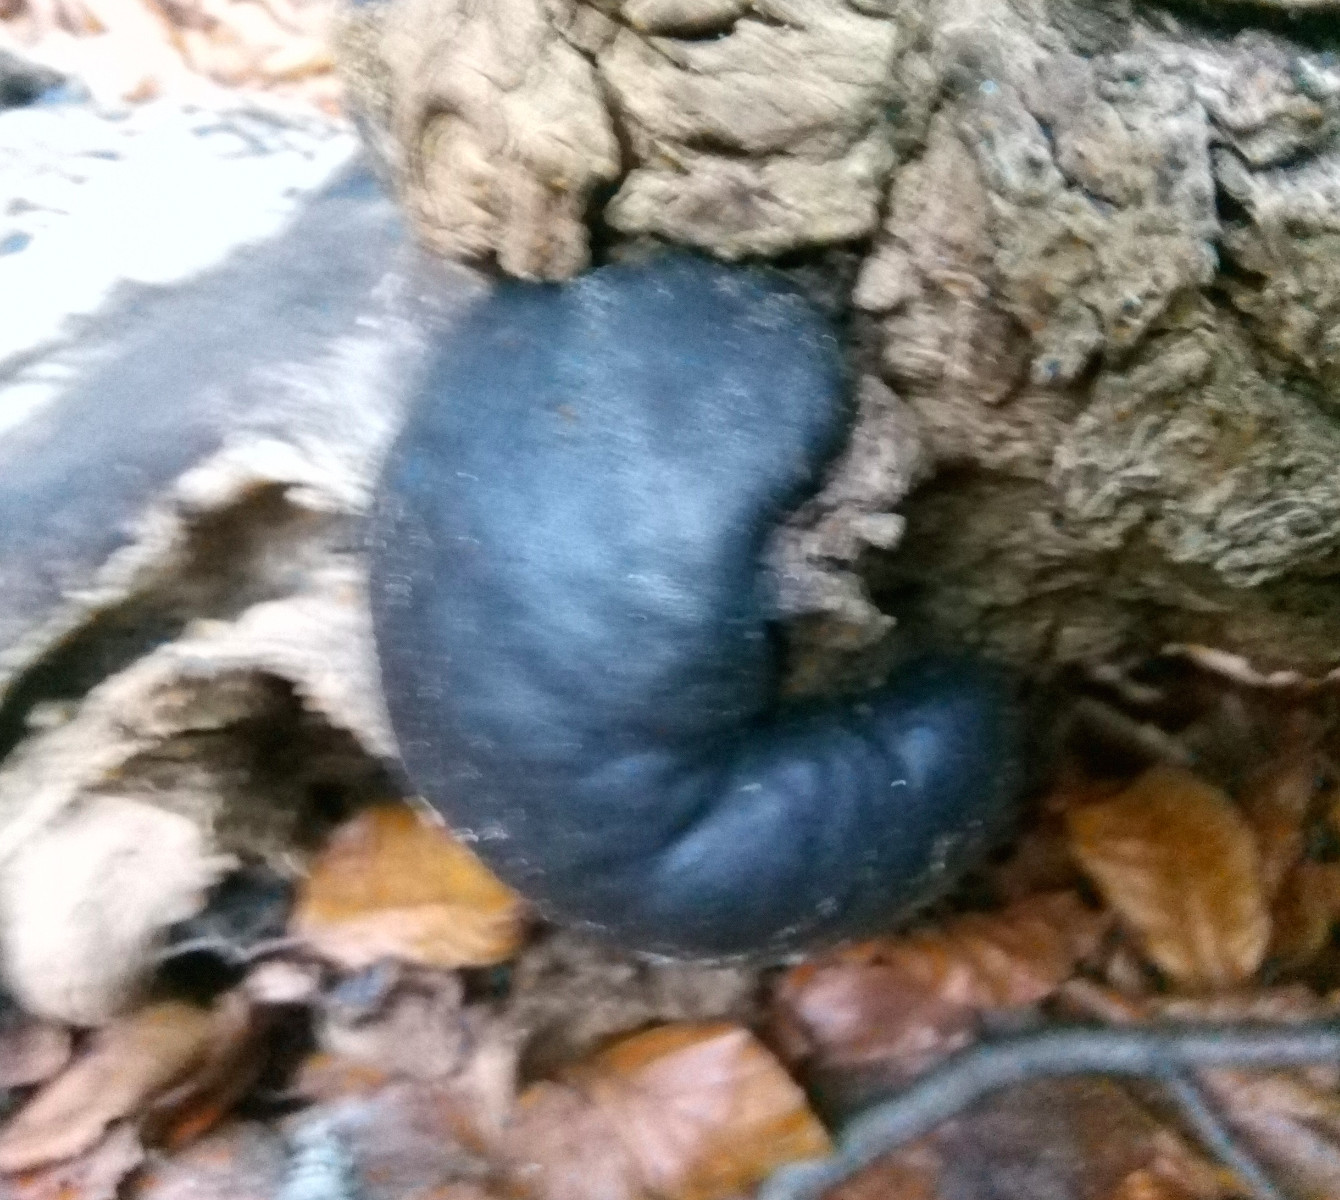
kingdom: Fungi
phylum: Ascomycota
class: Sordariomycetes
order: Xylariales
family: Hypoxylaceae
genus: Daldinia
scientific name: Daldinia concentrica
